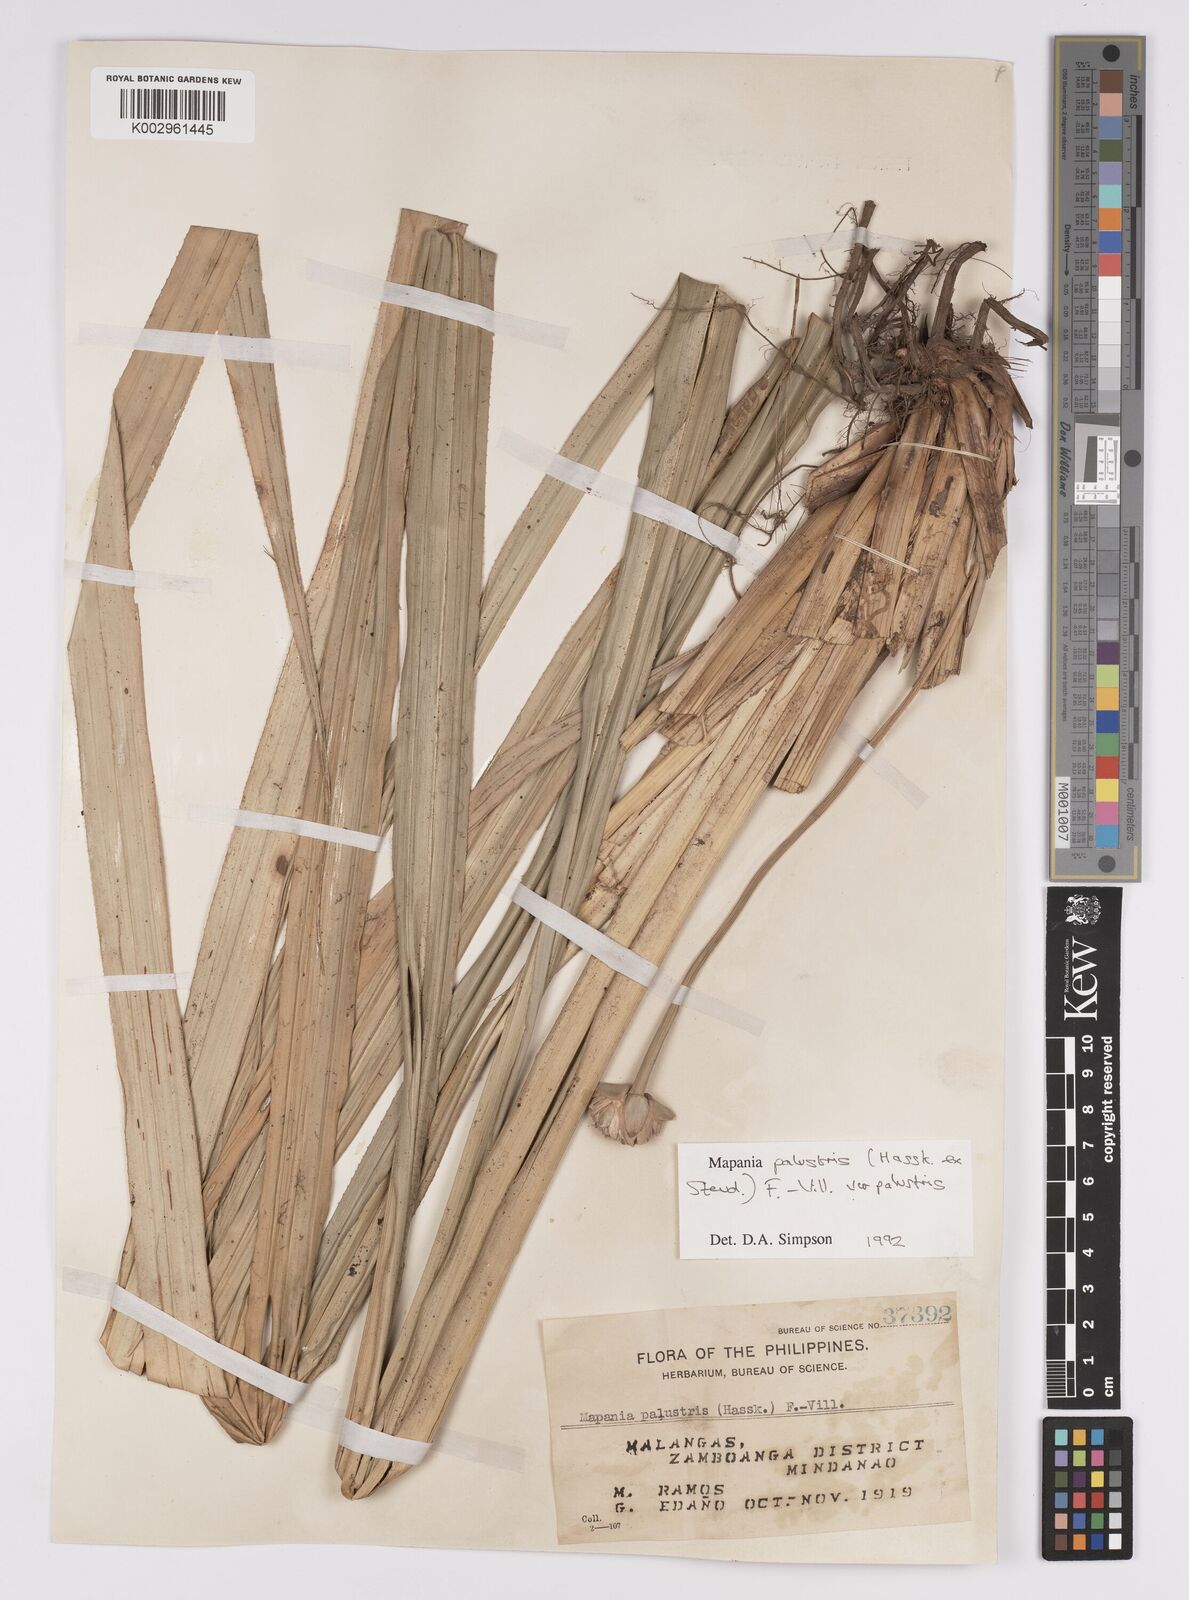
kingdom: Plantae
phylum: Tracheophyta
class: Liliopsida
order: Poales
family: Cyperaceae
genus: Mapania
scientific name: Mapania palustris
